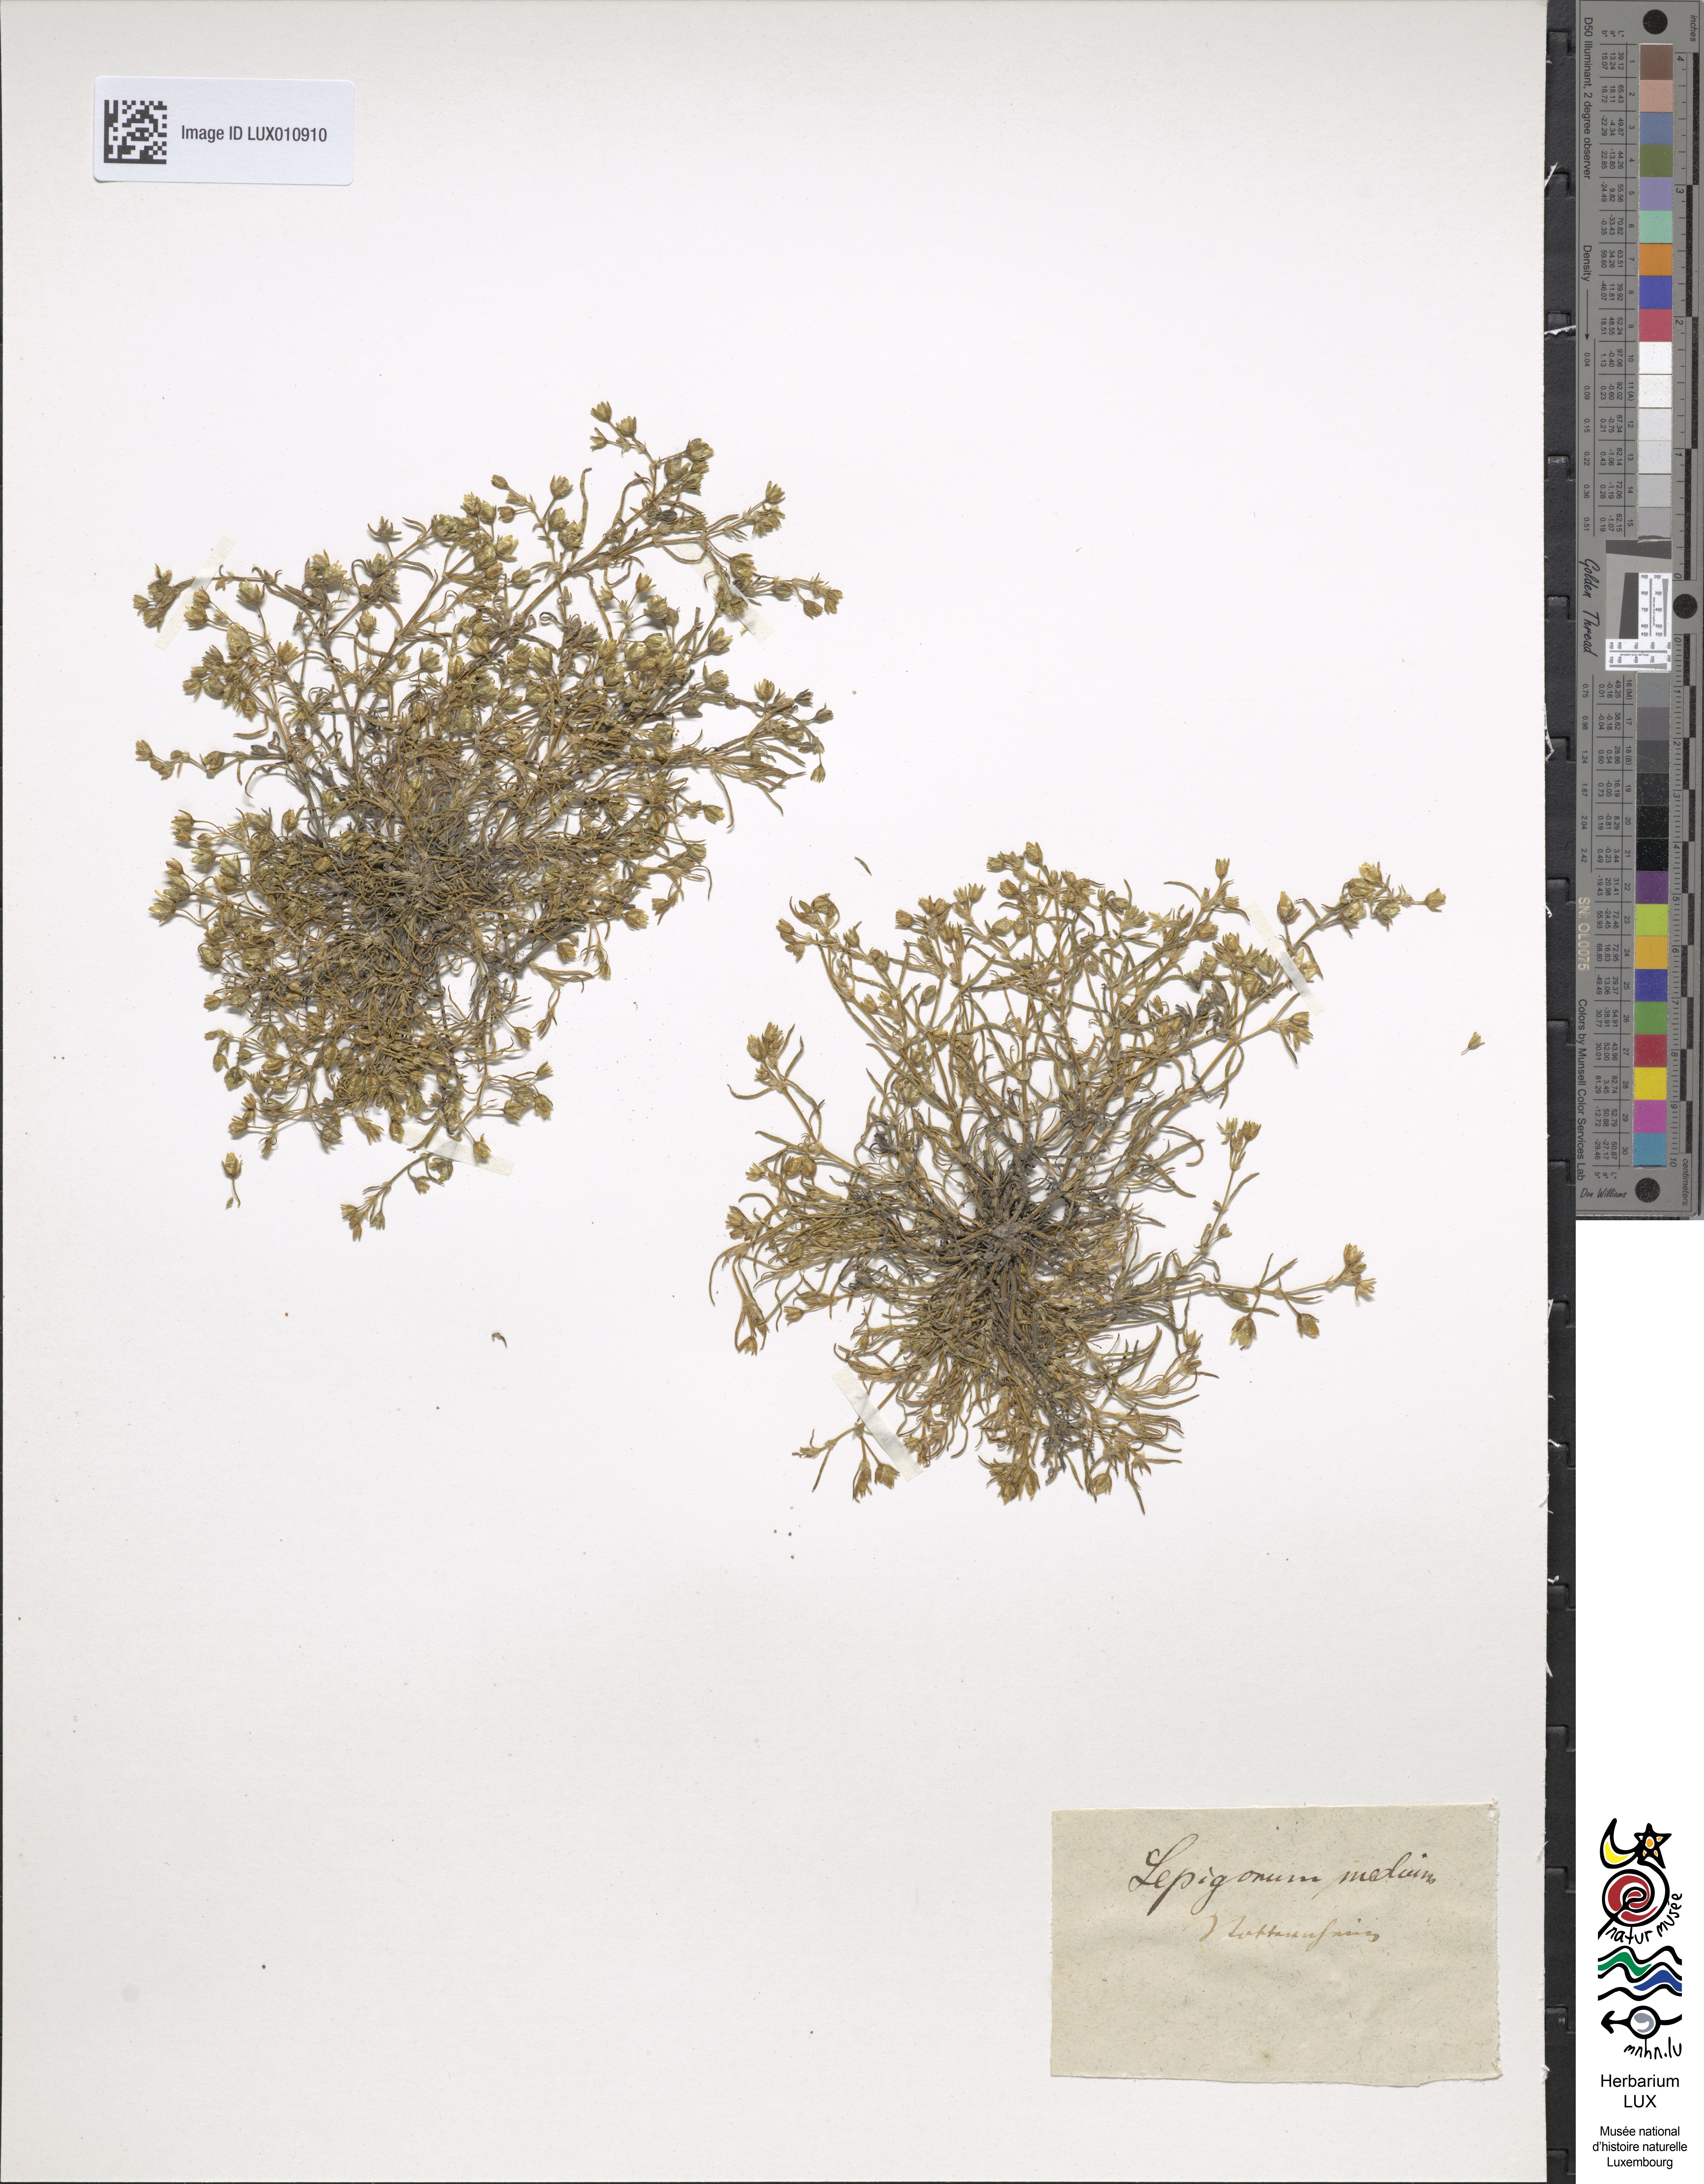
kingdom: Plantae
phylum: Tracheophyta
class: Magnoliopsida
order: Caryophyllales
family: Caryophyllaceae
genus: Spergularia
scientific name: Spergularia media
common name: Greater sea-spurrey
